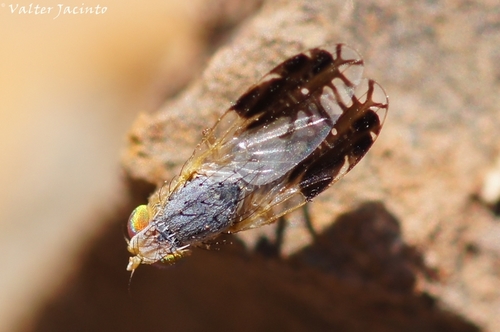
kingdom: Animalia
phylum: Arthropoda
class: Insecta
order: Diptera
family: Tephritidae
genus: Capitites
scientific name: Capitites ramulosa
